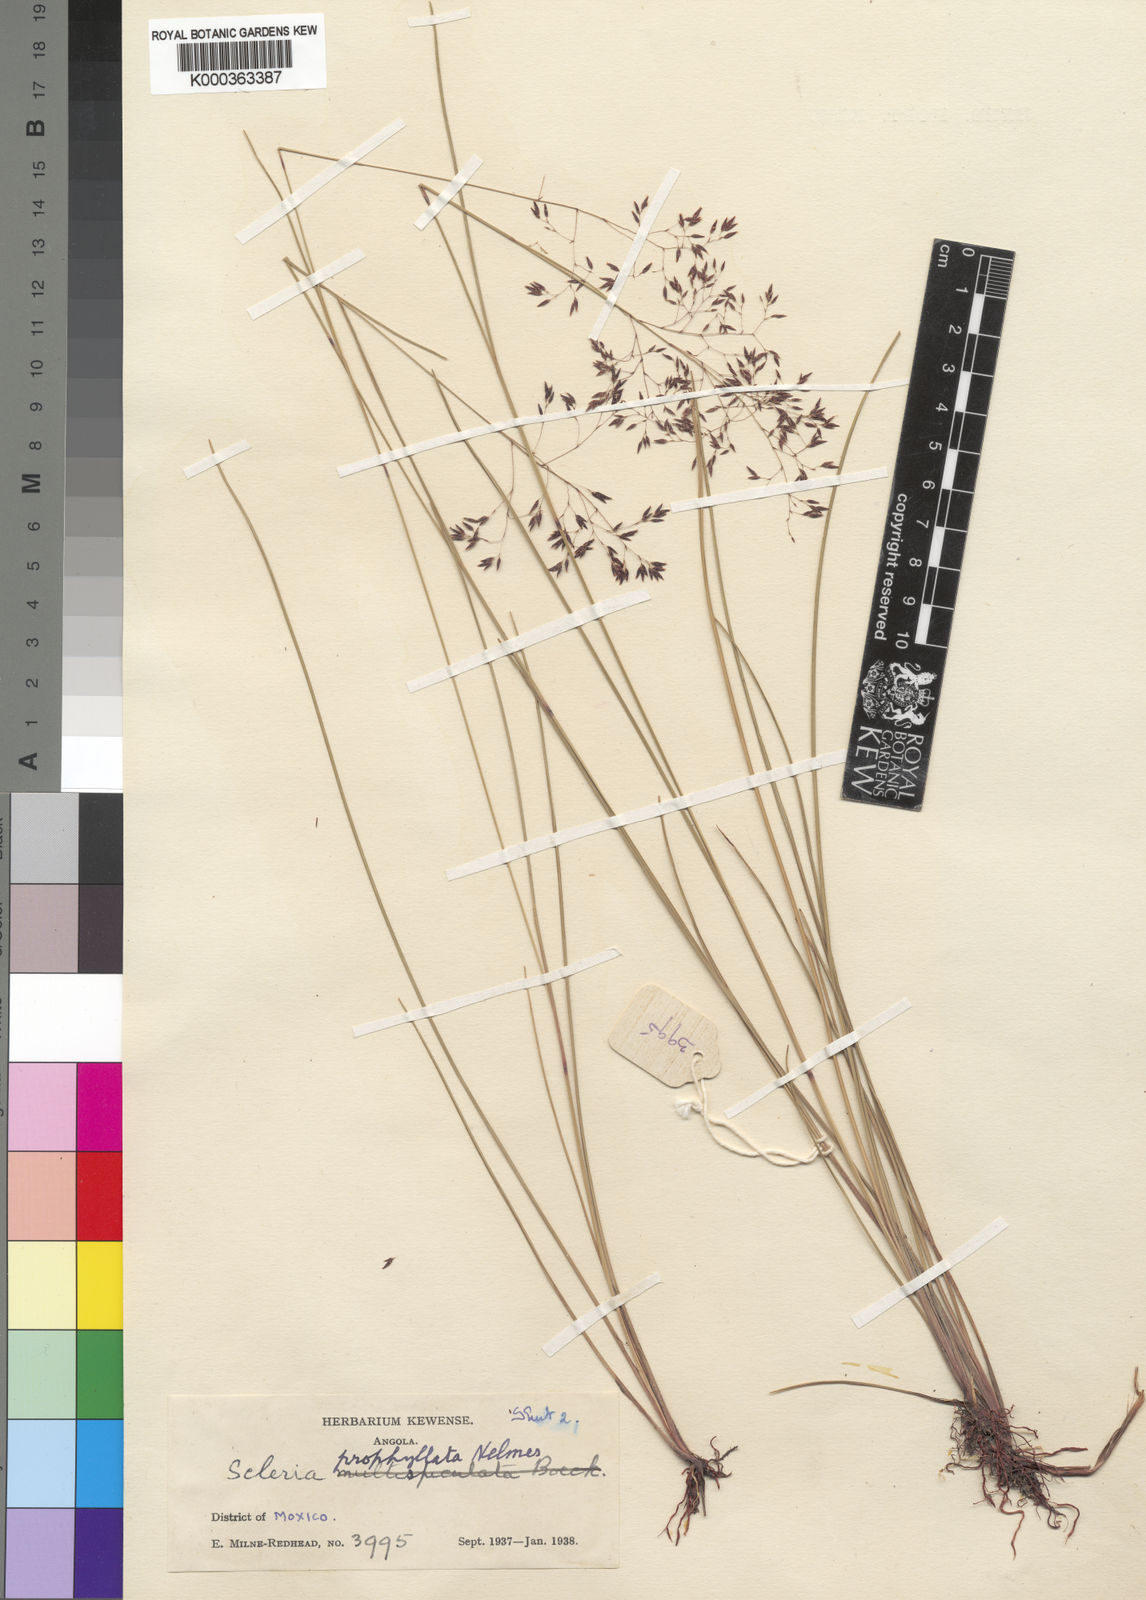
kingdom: Plantae
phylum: Tracheophyta
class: Liliopsida
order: Poales
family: Cyperaceae
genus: Scleria
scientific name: Scleria pooides
